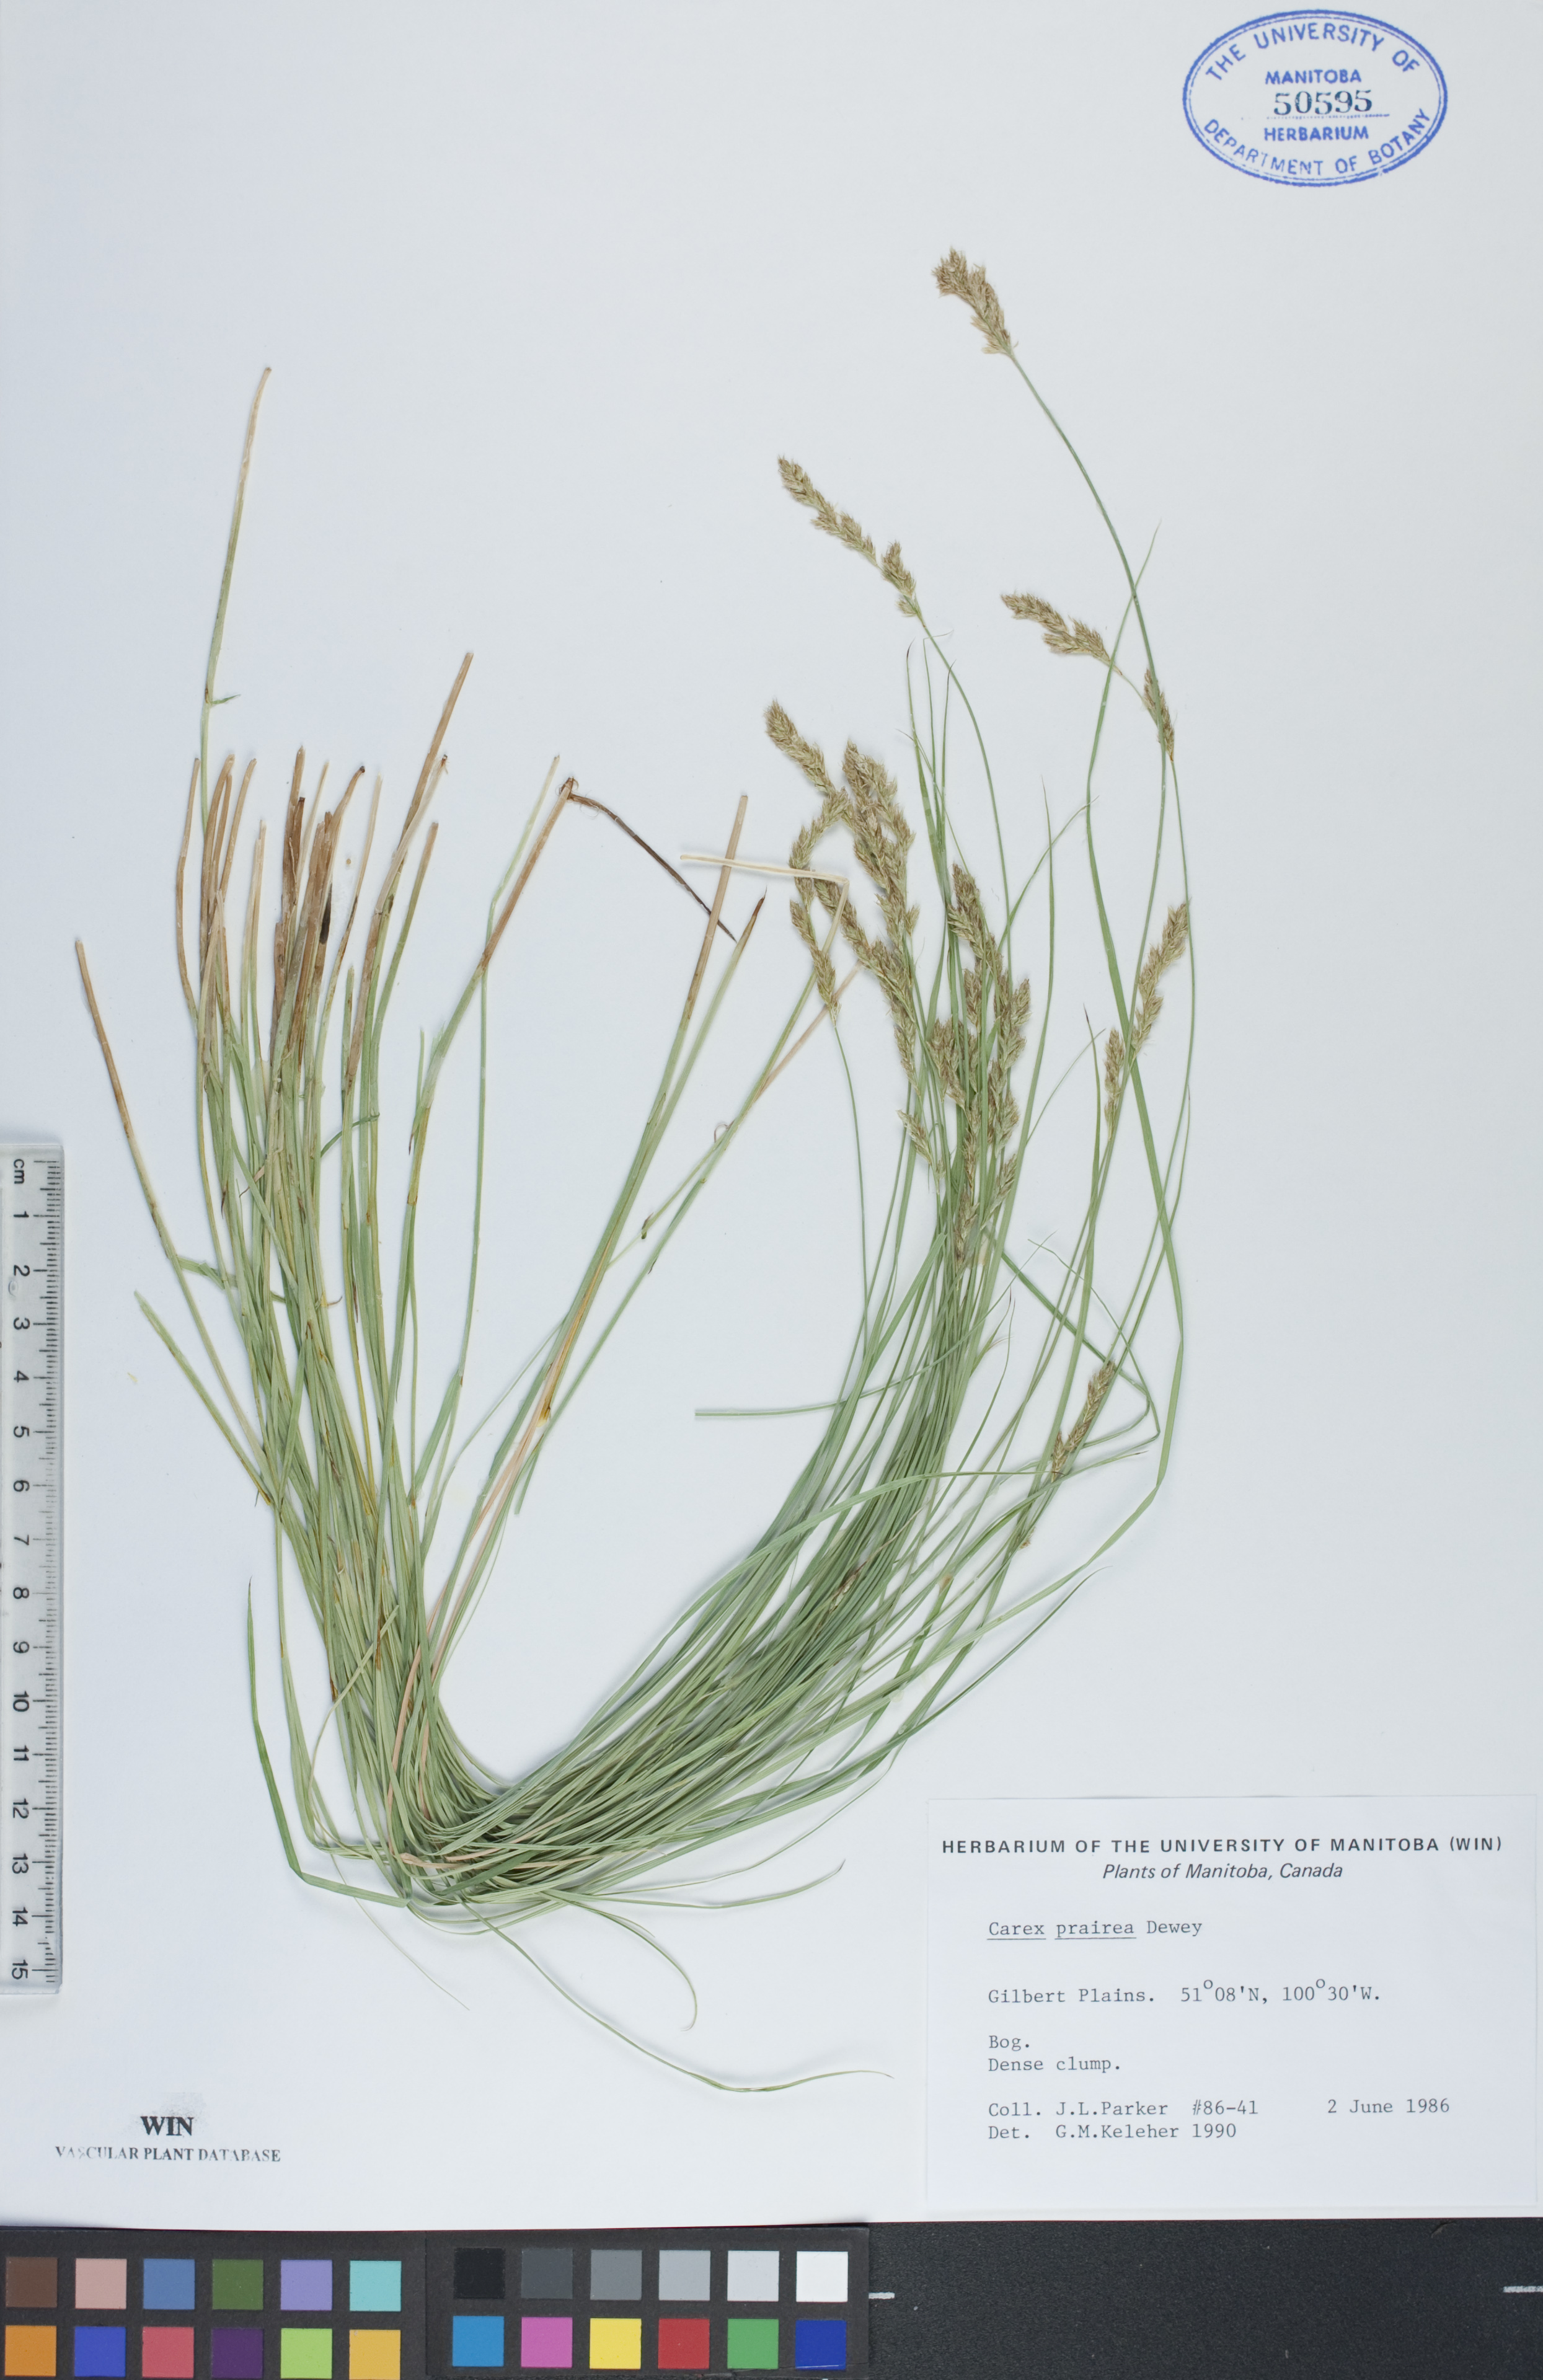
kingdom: Plantae
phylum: Tracheophyta
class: Liliopsida
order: Poales
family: Cyperaceae
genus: Carex
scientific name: Carex prairea
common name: Prairie sedge
